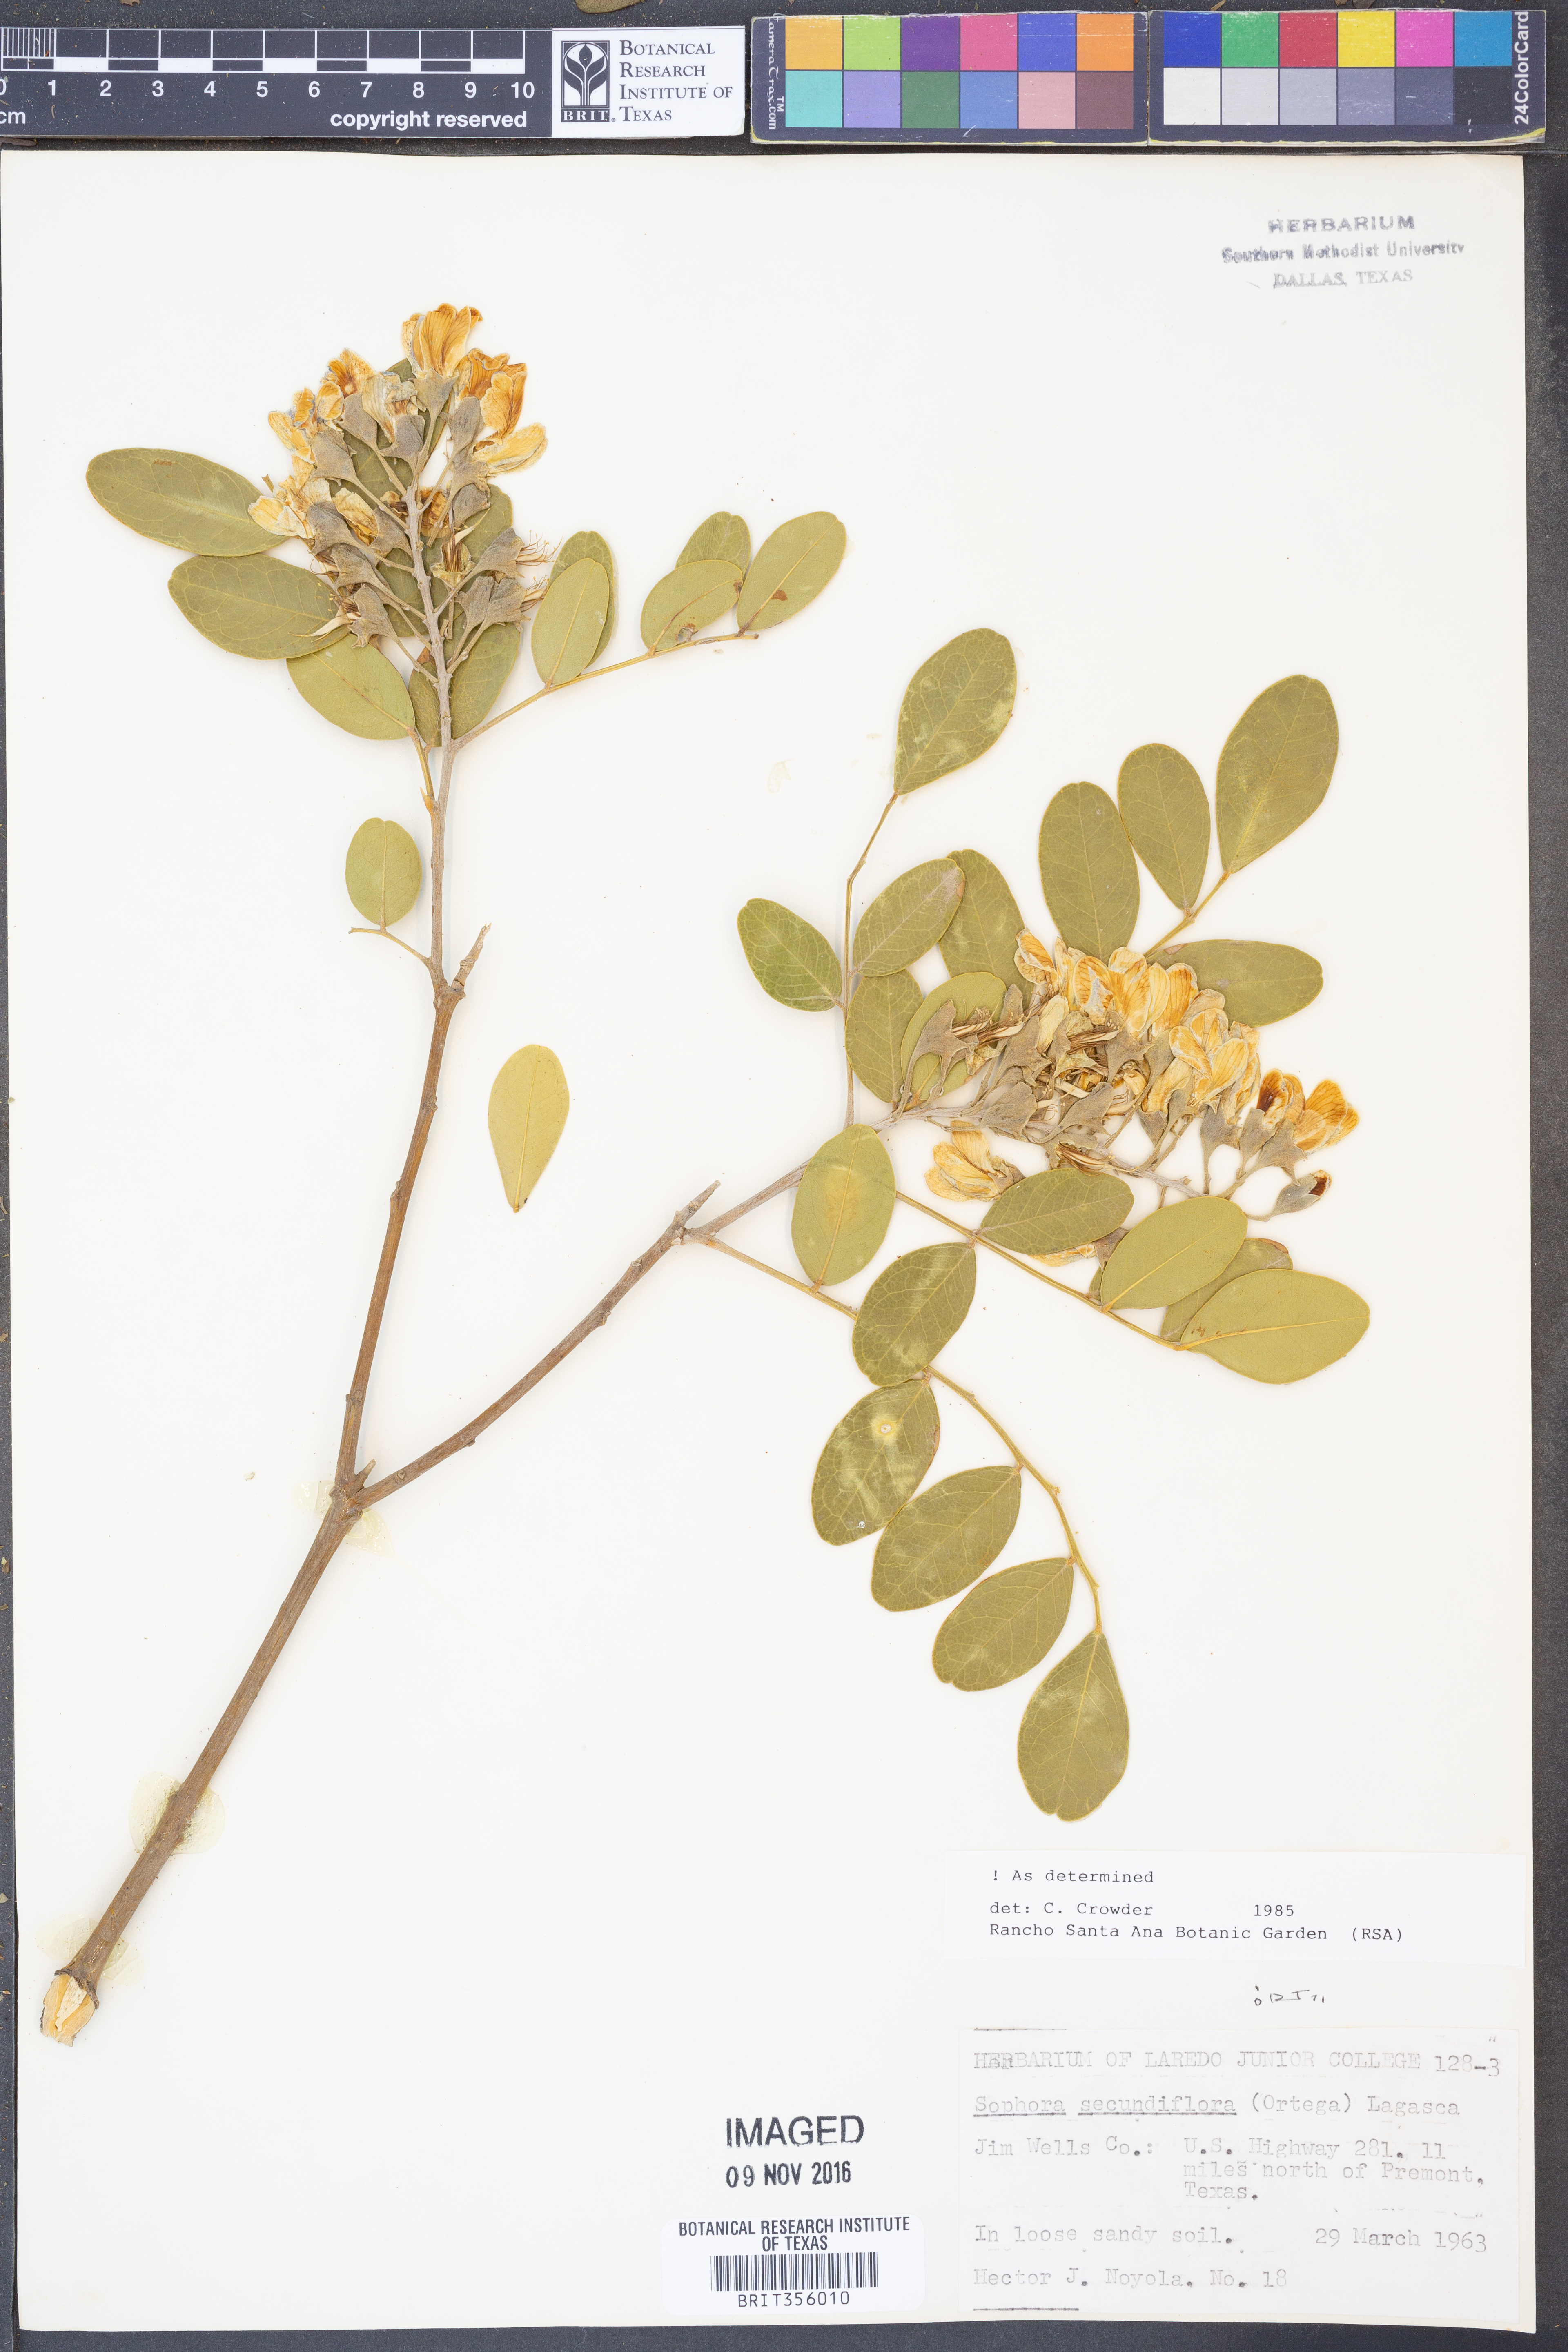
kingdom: Plantae
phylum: Tracheophyta
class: Magnoliopsida
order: Fabales
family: Fabaceae
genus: Dermatophyllum
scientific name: Dermatophyllum secundiflorum
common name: Texas-mountain-laurel
